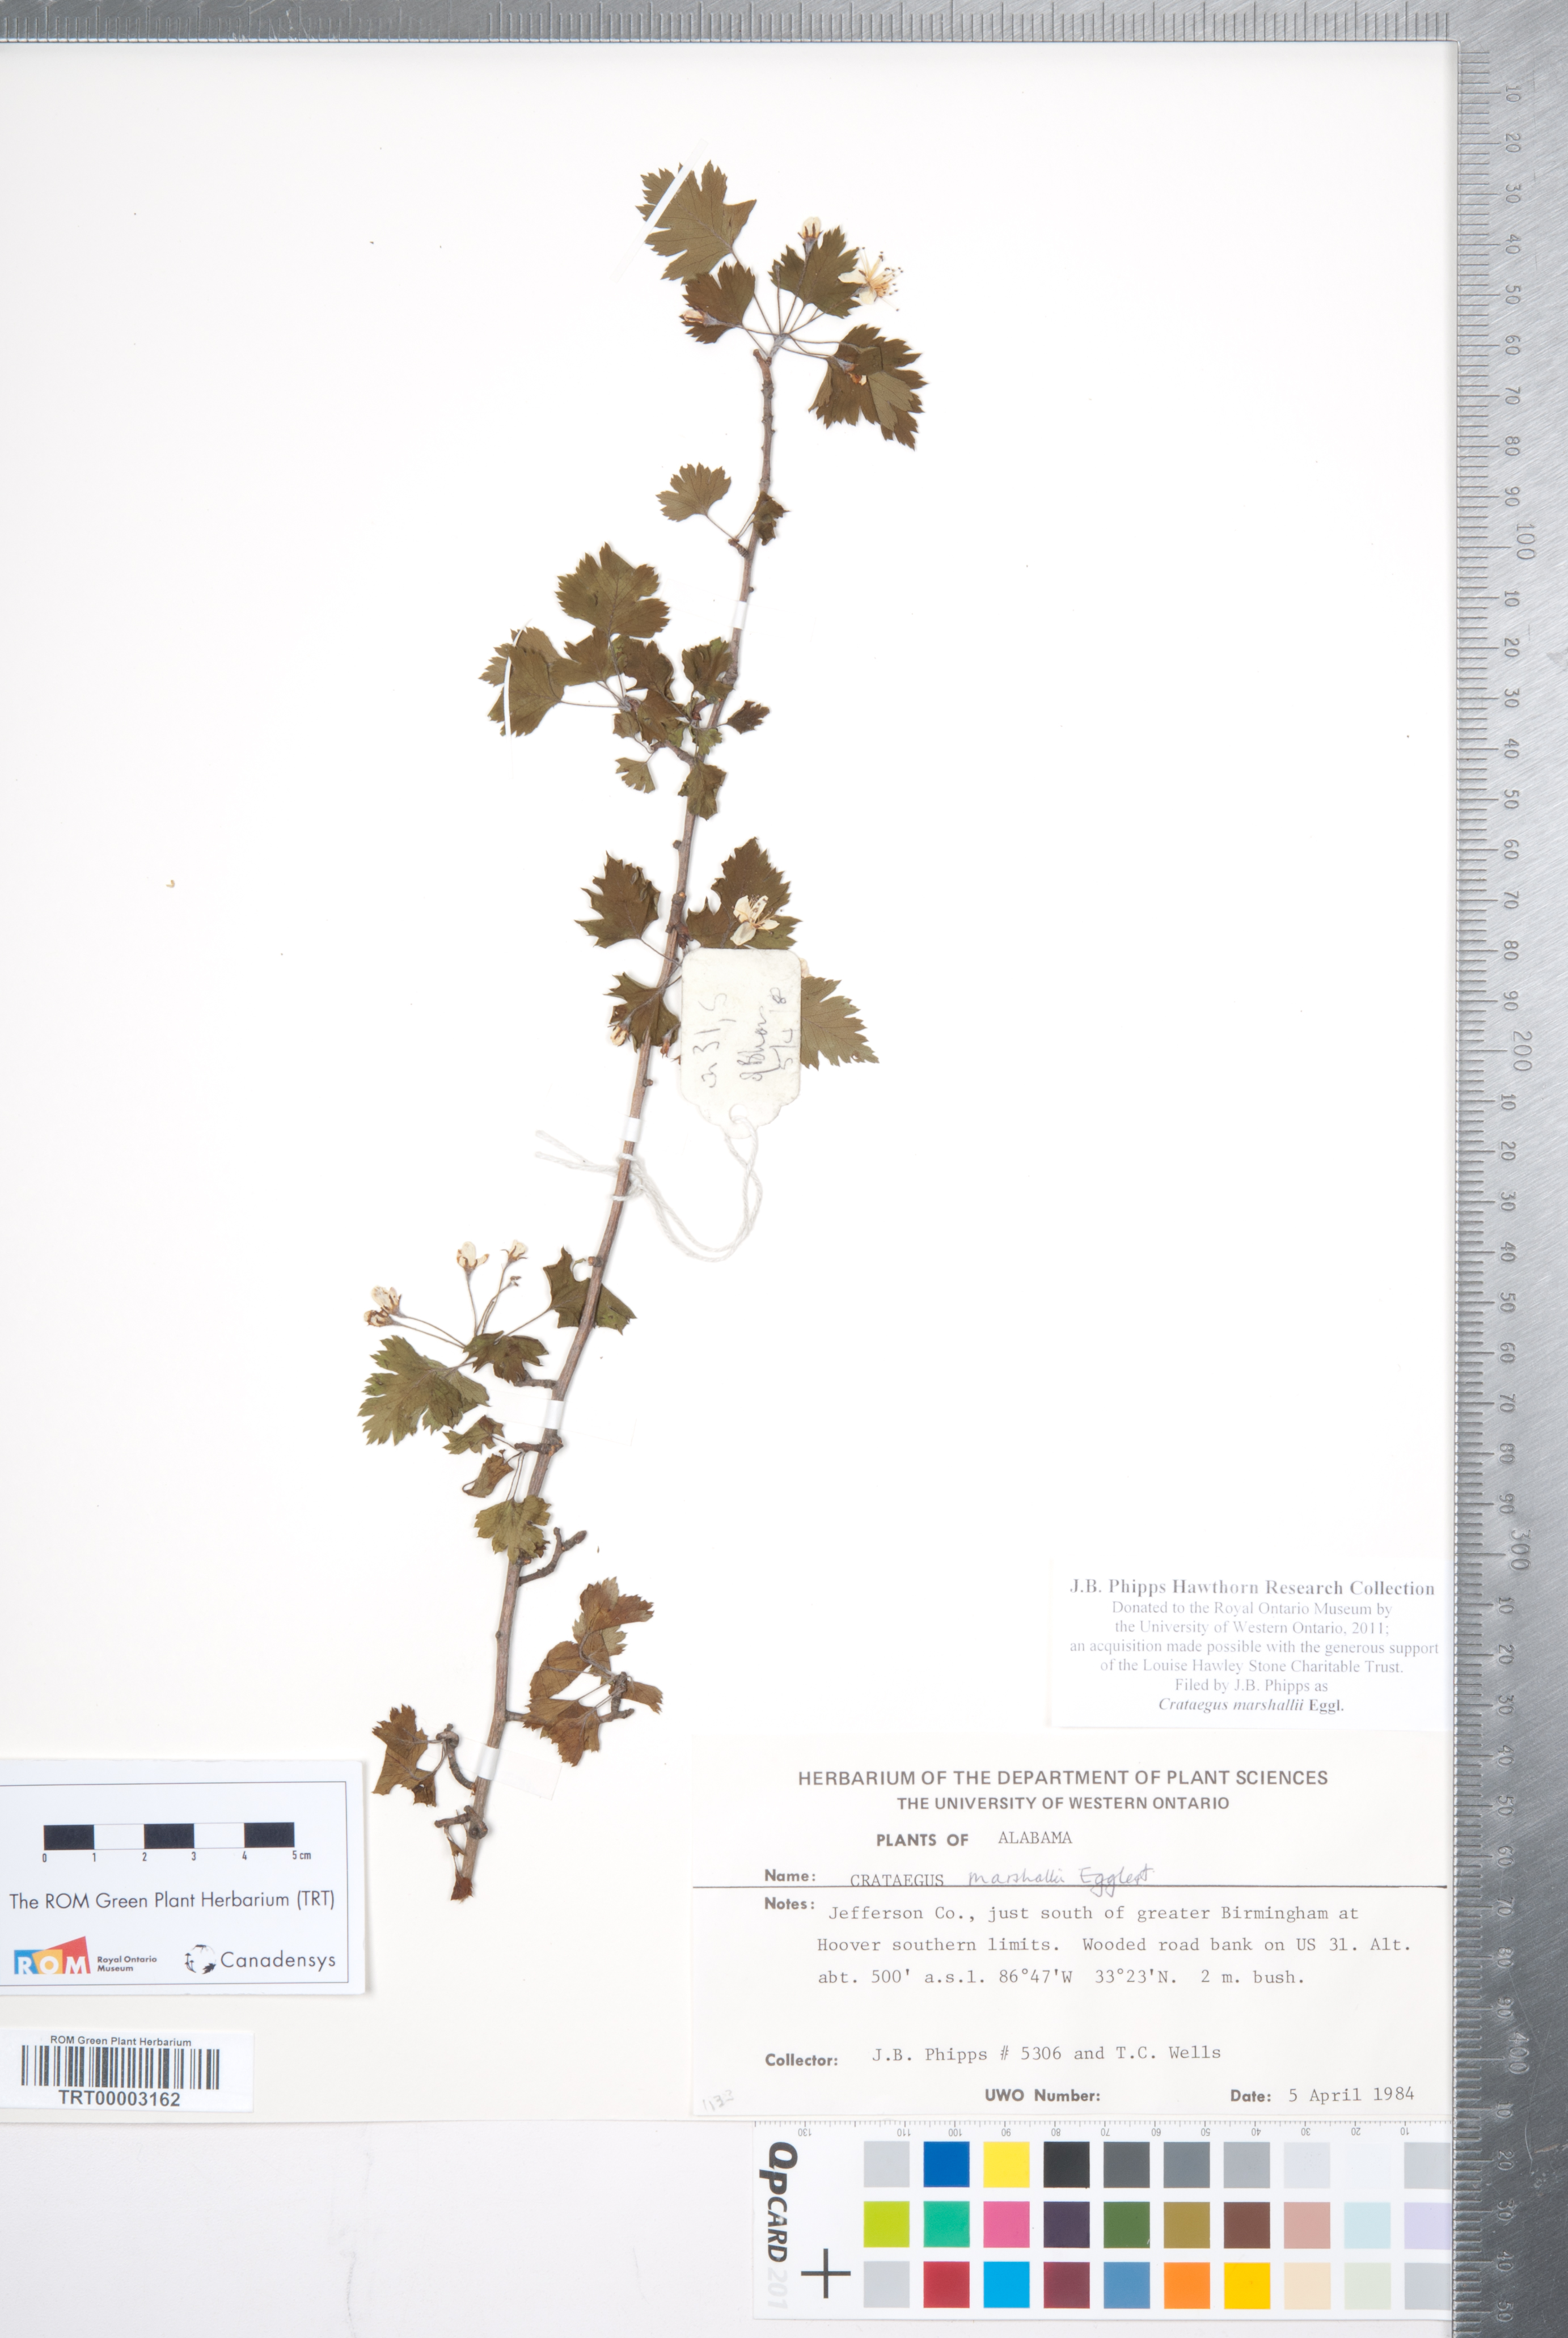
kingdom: Plantae
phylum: Tracheophyta
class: Magnoliopsida
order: Rosales
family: Rosaceae
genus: Crataegus
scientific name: Crataegus marshallii
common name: Parsley-hawthorn
